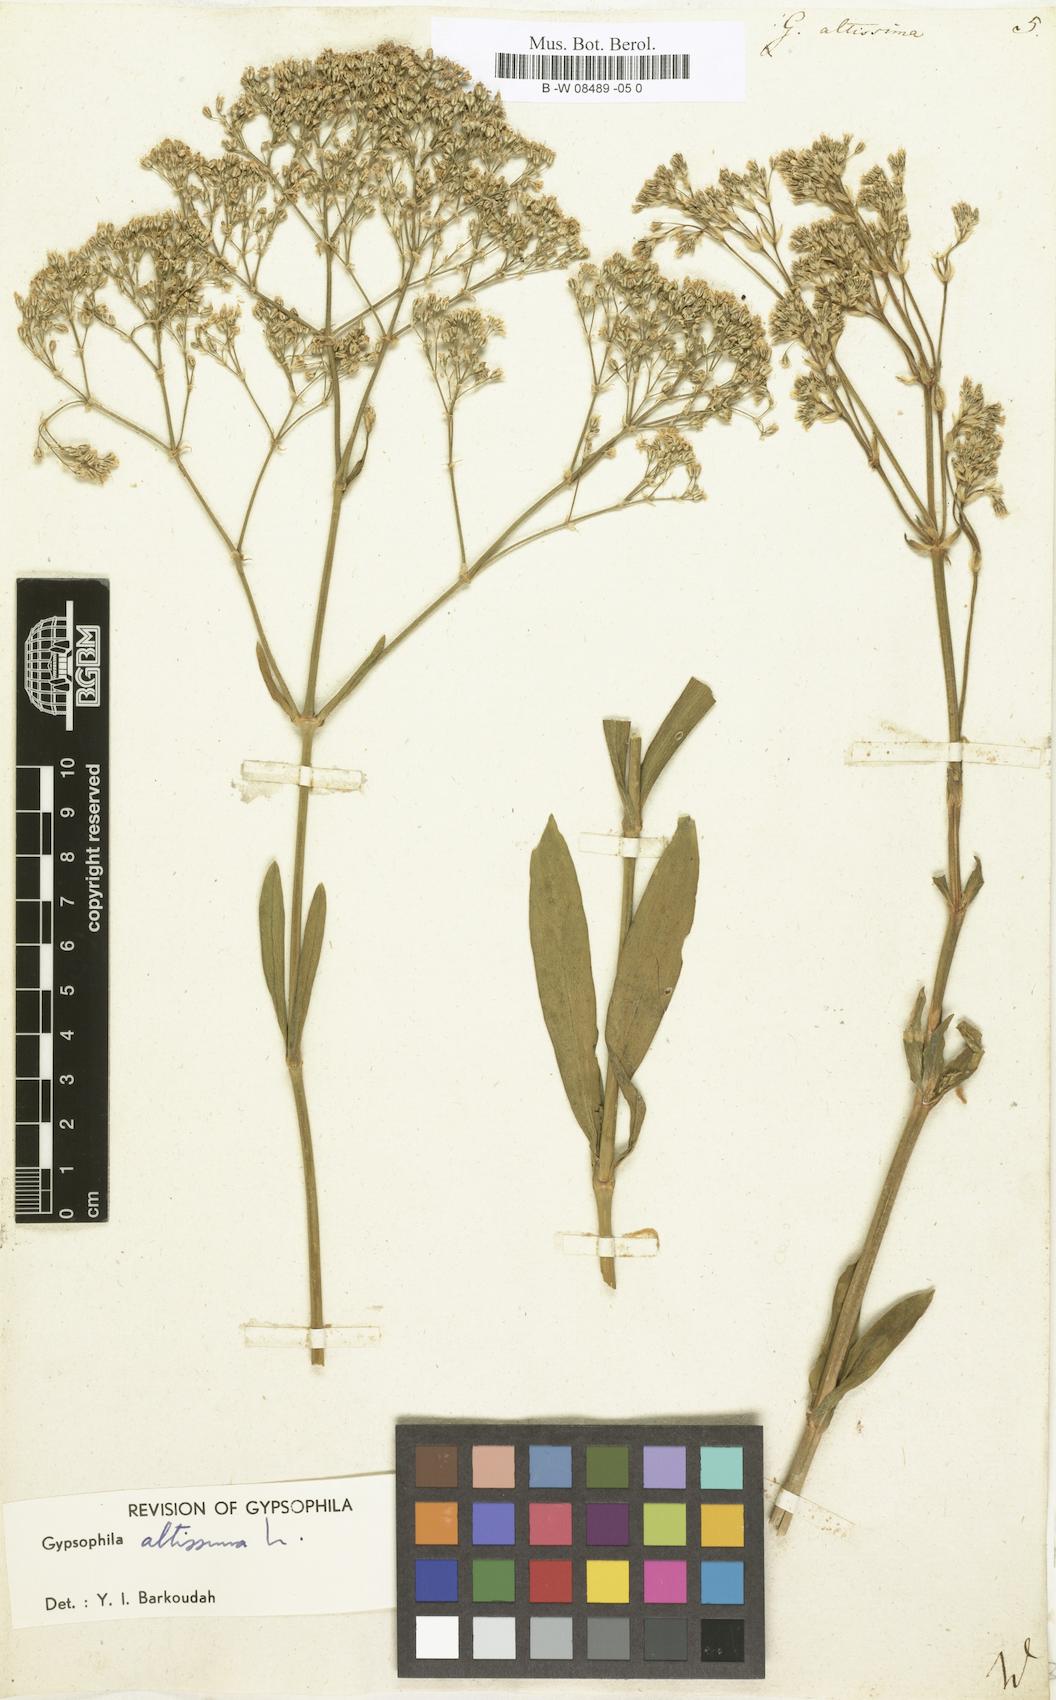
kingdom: Plantae
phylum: Tracheophyta
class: Magnoliopsida
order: Caryophyllales
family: Caryophyllaceae
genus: Gypsophila
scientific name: Gypsophila altissima
